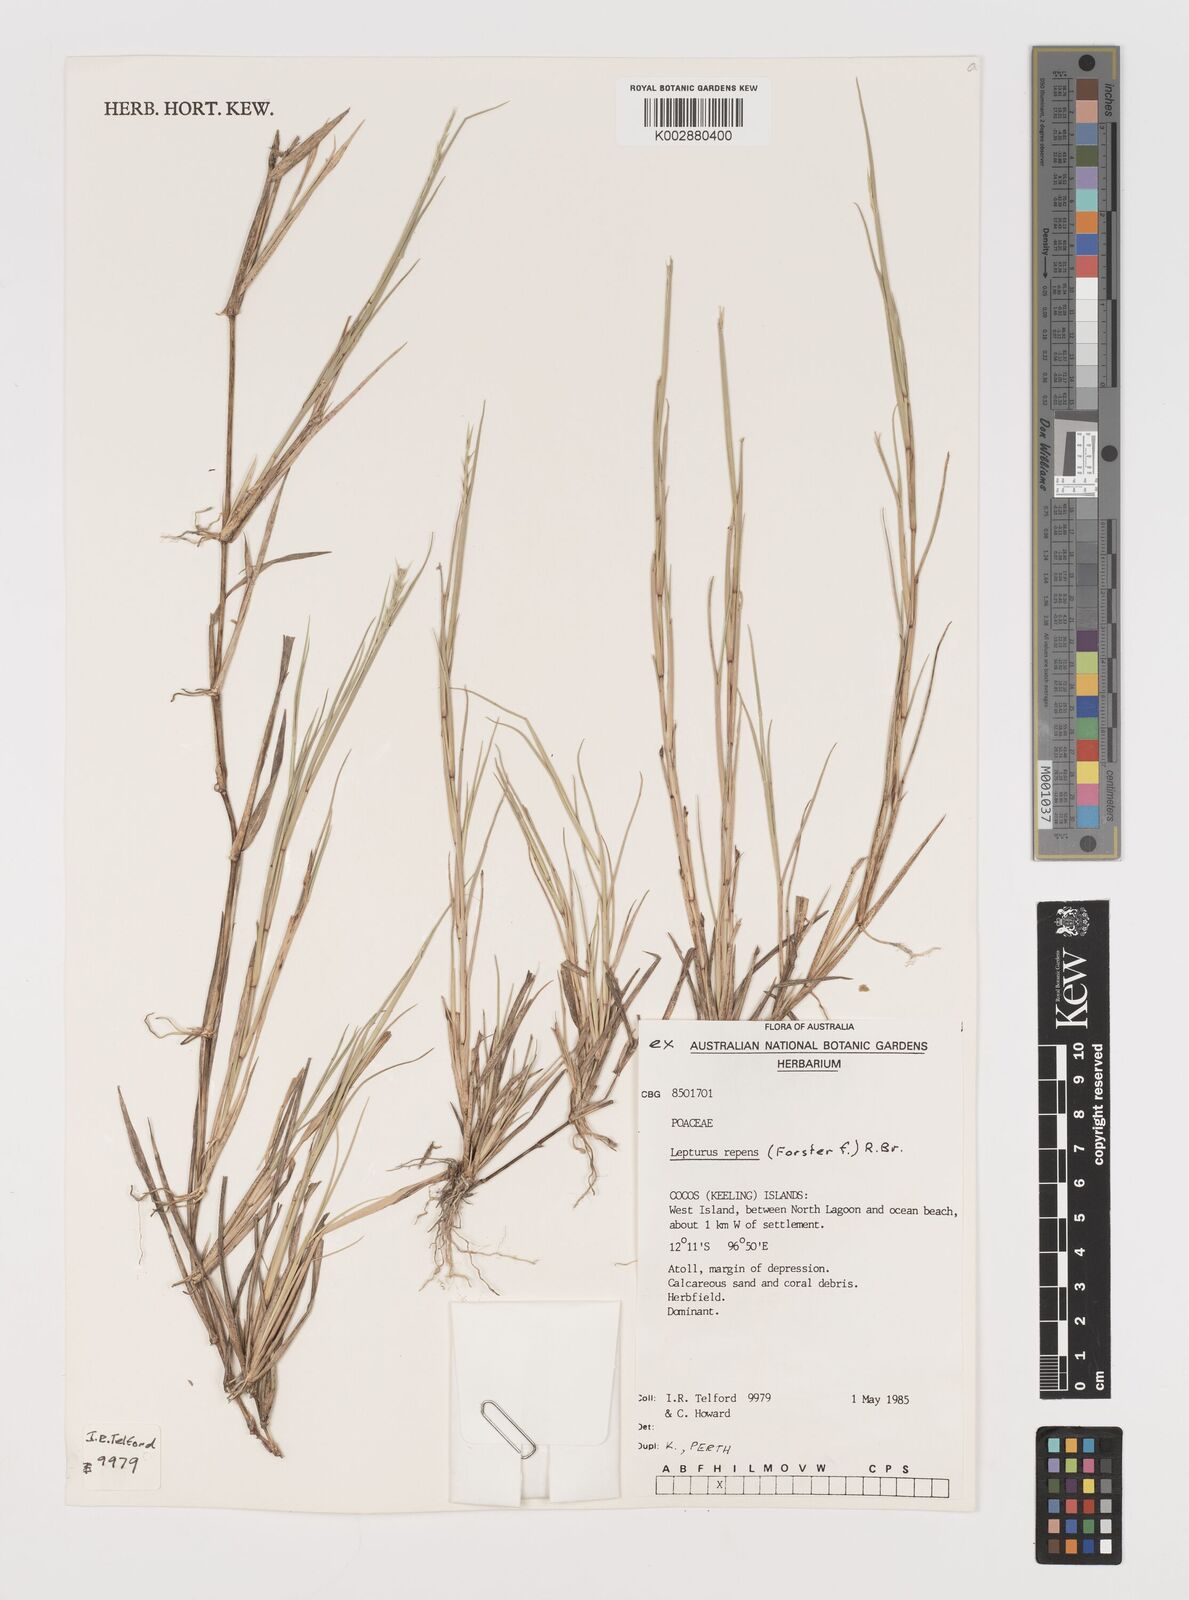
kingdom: Plantae
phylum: Tracheophyta
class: Liliopsida
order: Poales
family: Poaceae
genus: Lepturus
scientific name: Lepturus repens
